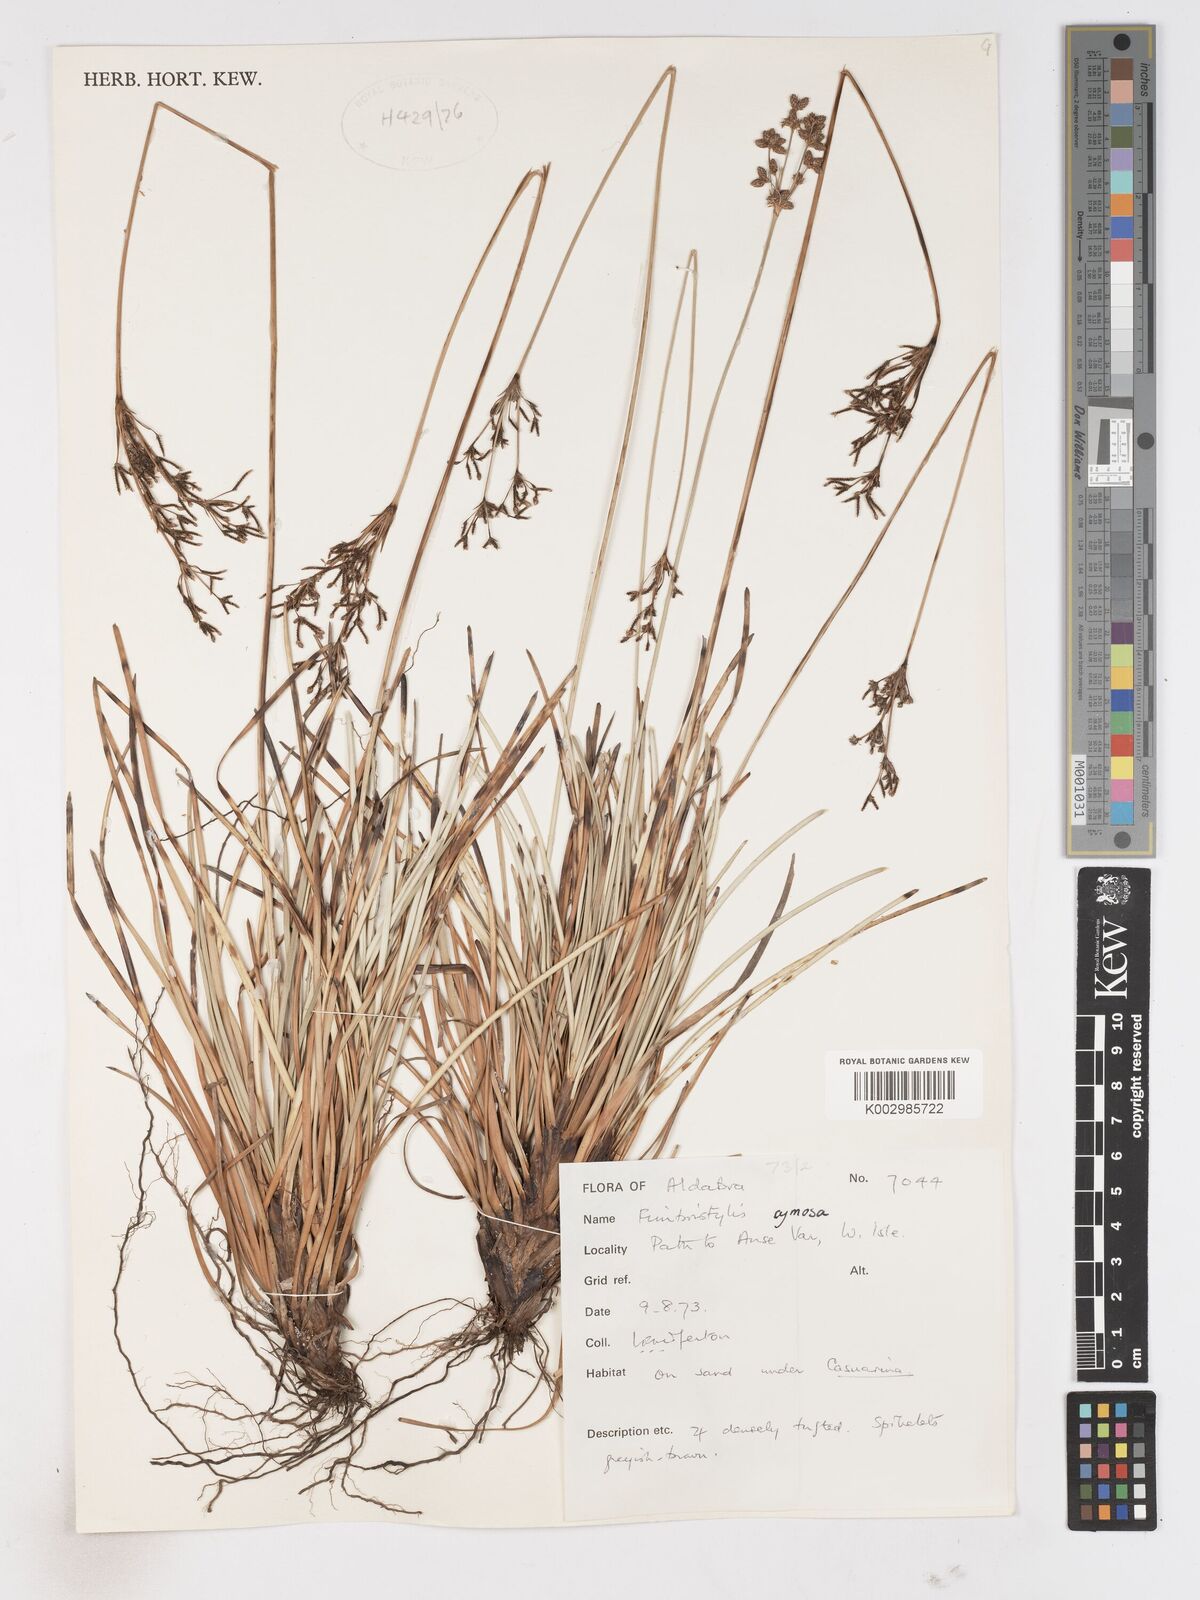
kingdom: Plantae
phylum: Tracheophyta
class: Liliopsida
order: Poales
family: Cyperaceae
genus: Fimbristylis
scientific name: Fimbristylis cymosa
